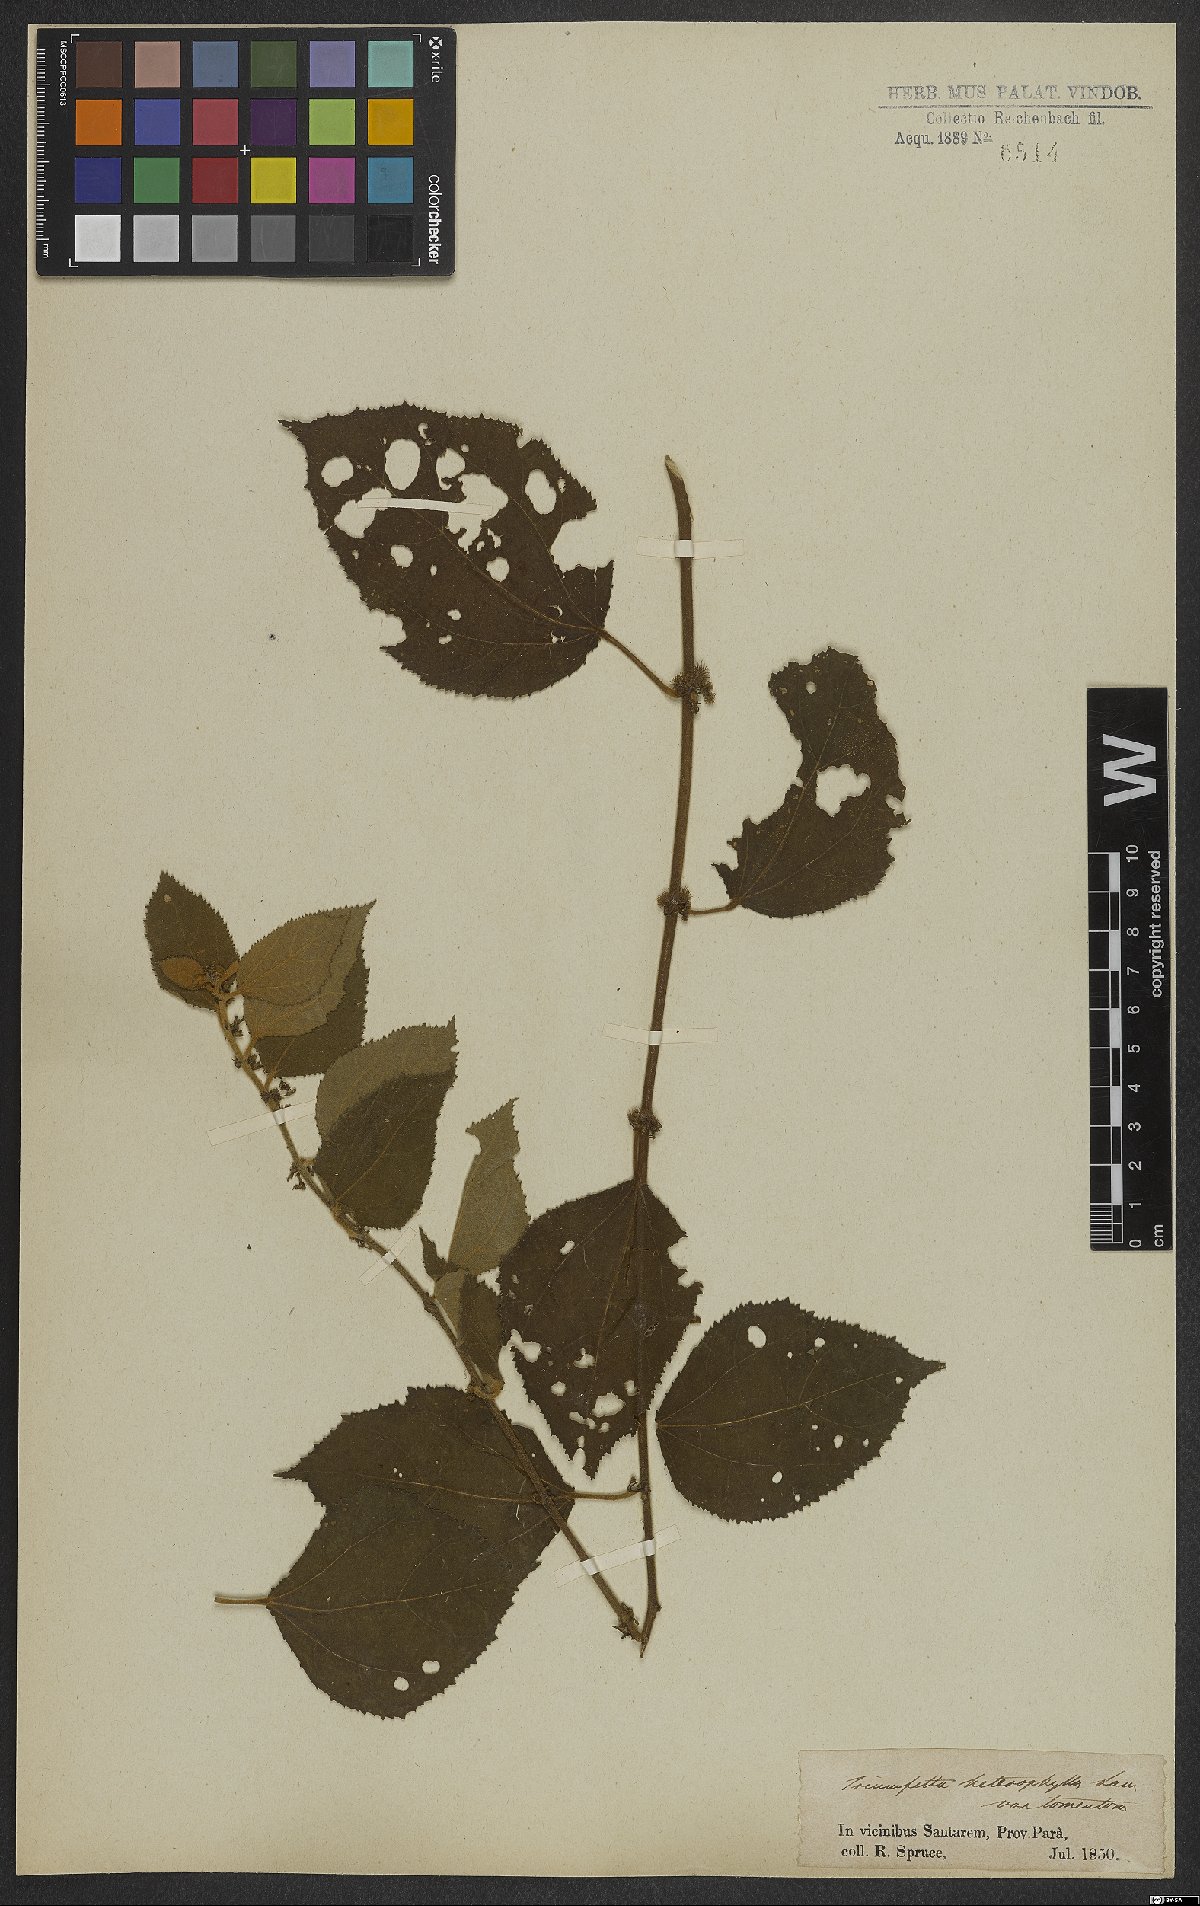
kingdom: Plantae
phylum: Tracheophyta
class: Magnoliopsida
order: Malvales
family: Malvaceae
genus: Triumfetta
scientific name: Triumfetta lappula
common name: Burbark
